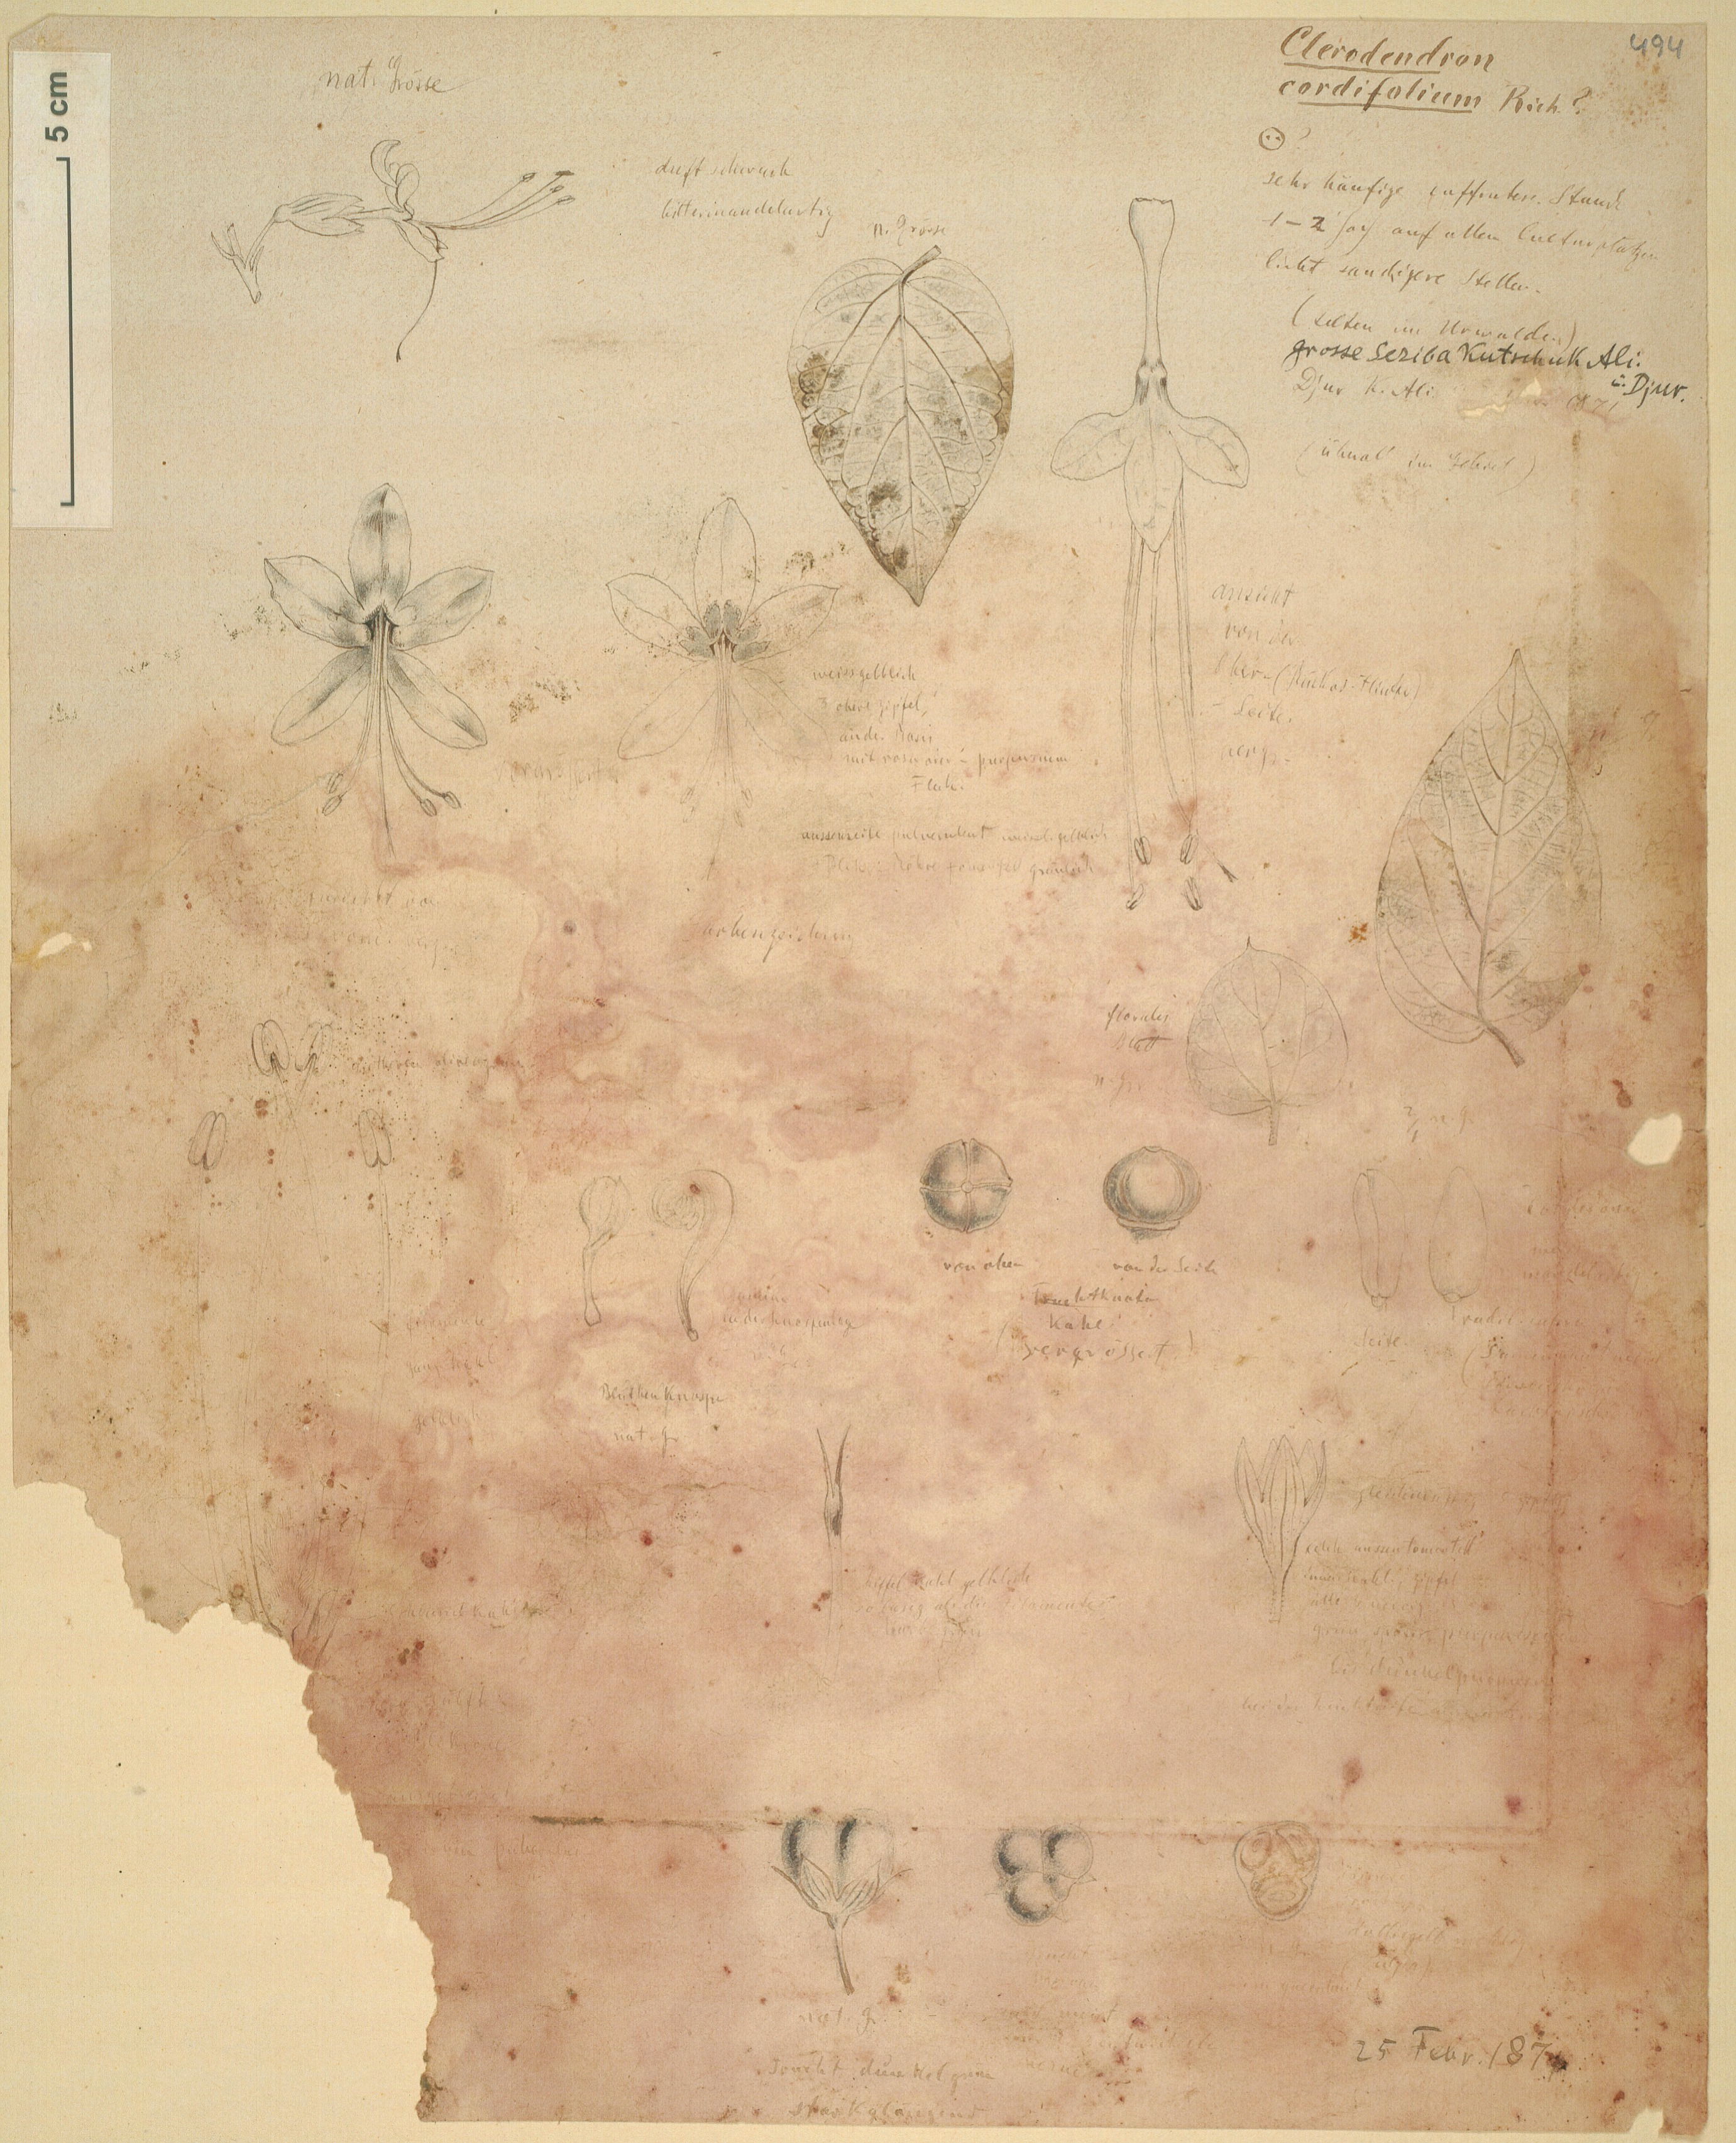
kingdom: Plantae
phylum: Tracheophyta
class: Magnoliopsida
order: Lamiales
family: Lamiaceae
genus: Clerodendrum
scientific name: Clerodendrum umbellatum
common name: Umbel clerodendrum
